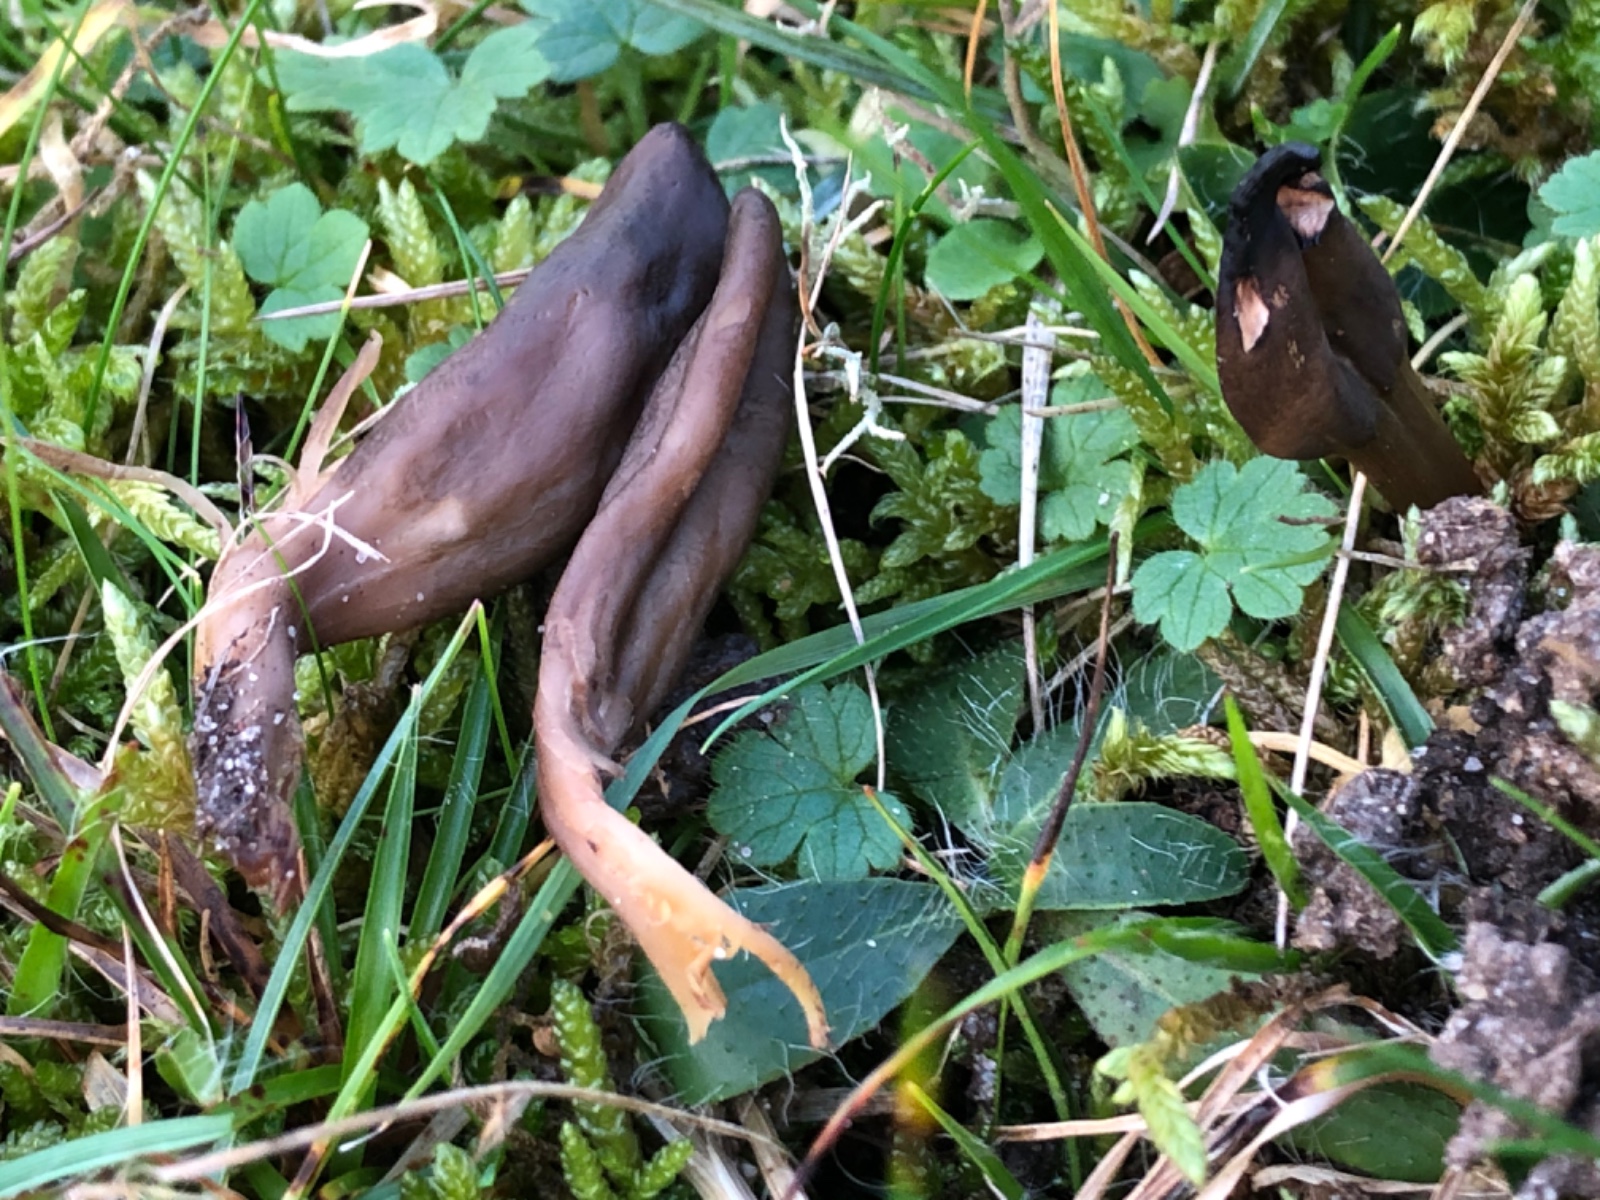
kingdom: Fungi
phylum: Ascomycota
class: Leotiomycetes
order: Leotiales
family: Leotiaceae
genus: Microglossum
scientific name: Microglossum olivaceum
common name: olivenbrun farvetunge
